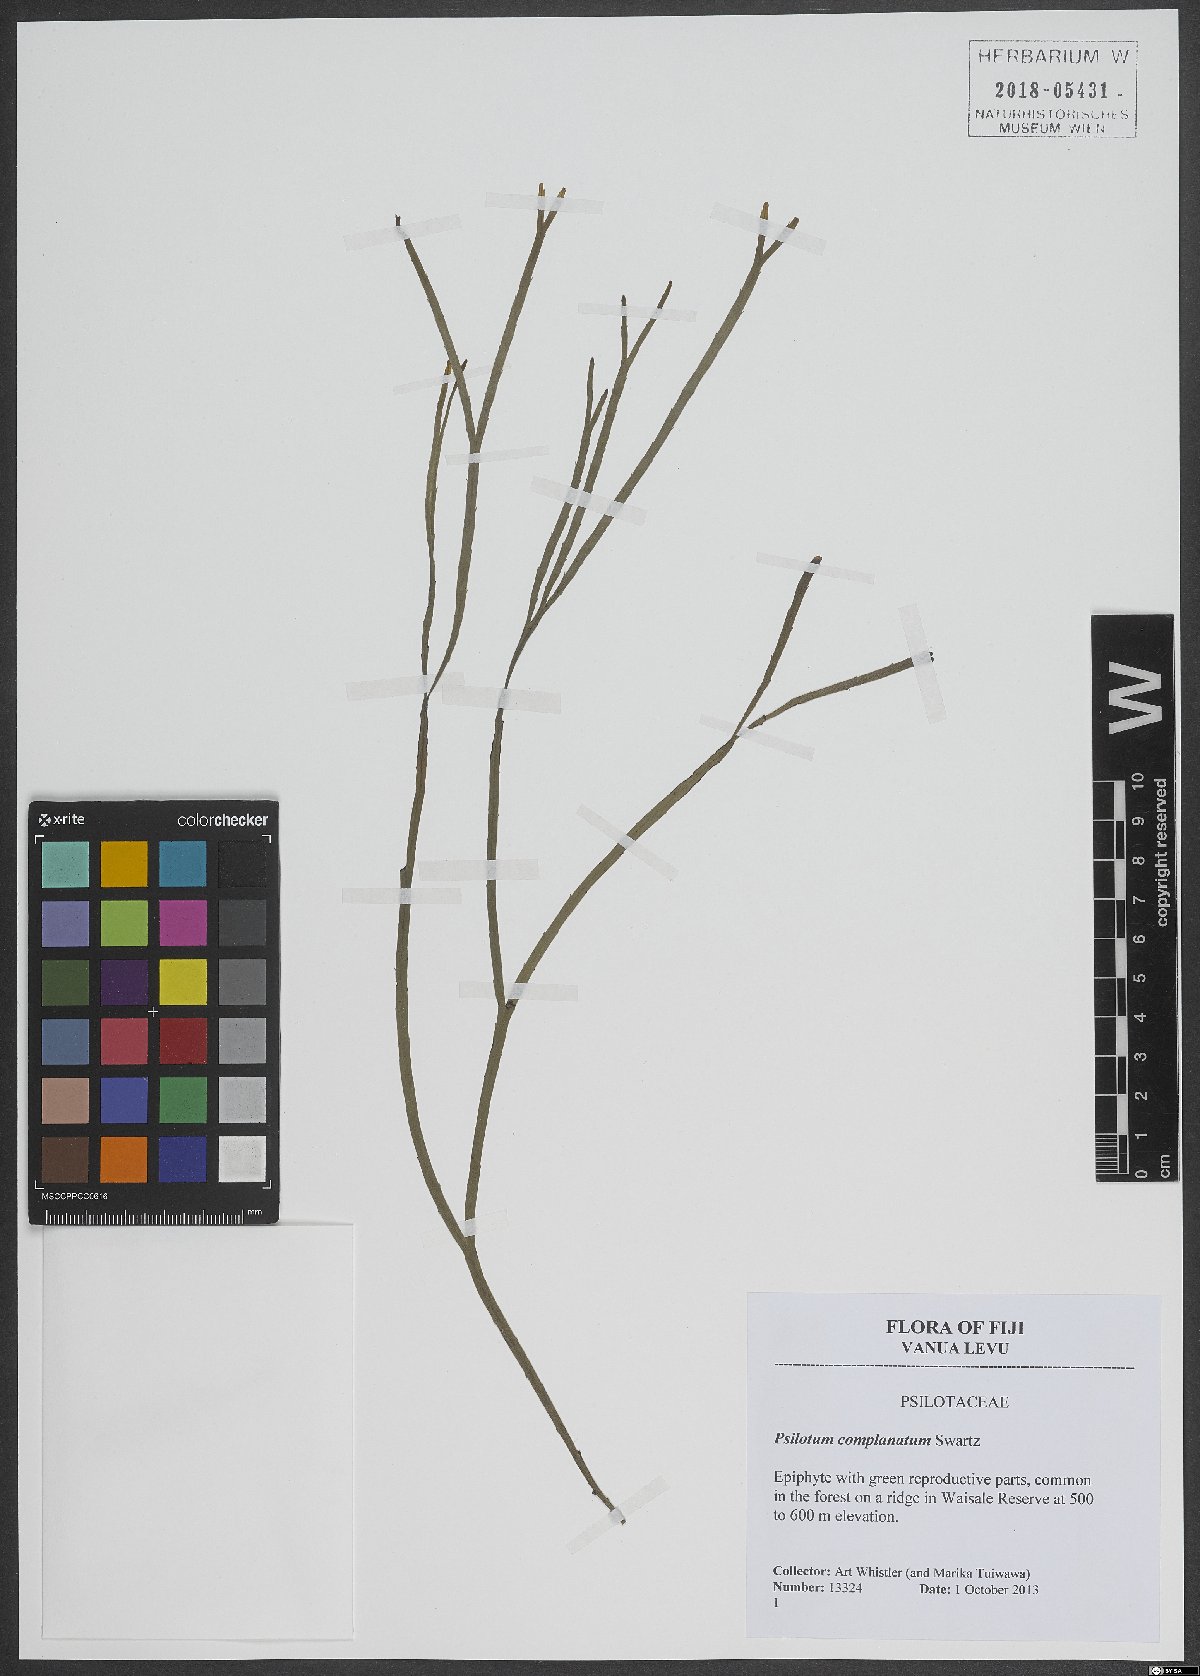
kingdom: Plantae
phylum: Tracheophyta
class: Polypodiopsida
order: Psilotales
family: Psilotaceae
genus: Psilotum
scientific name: Psilotum complanatum
